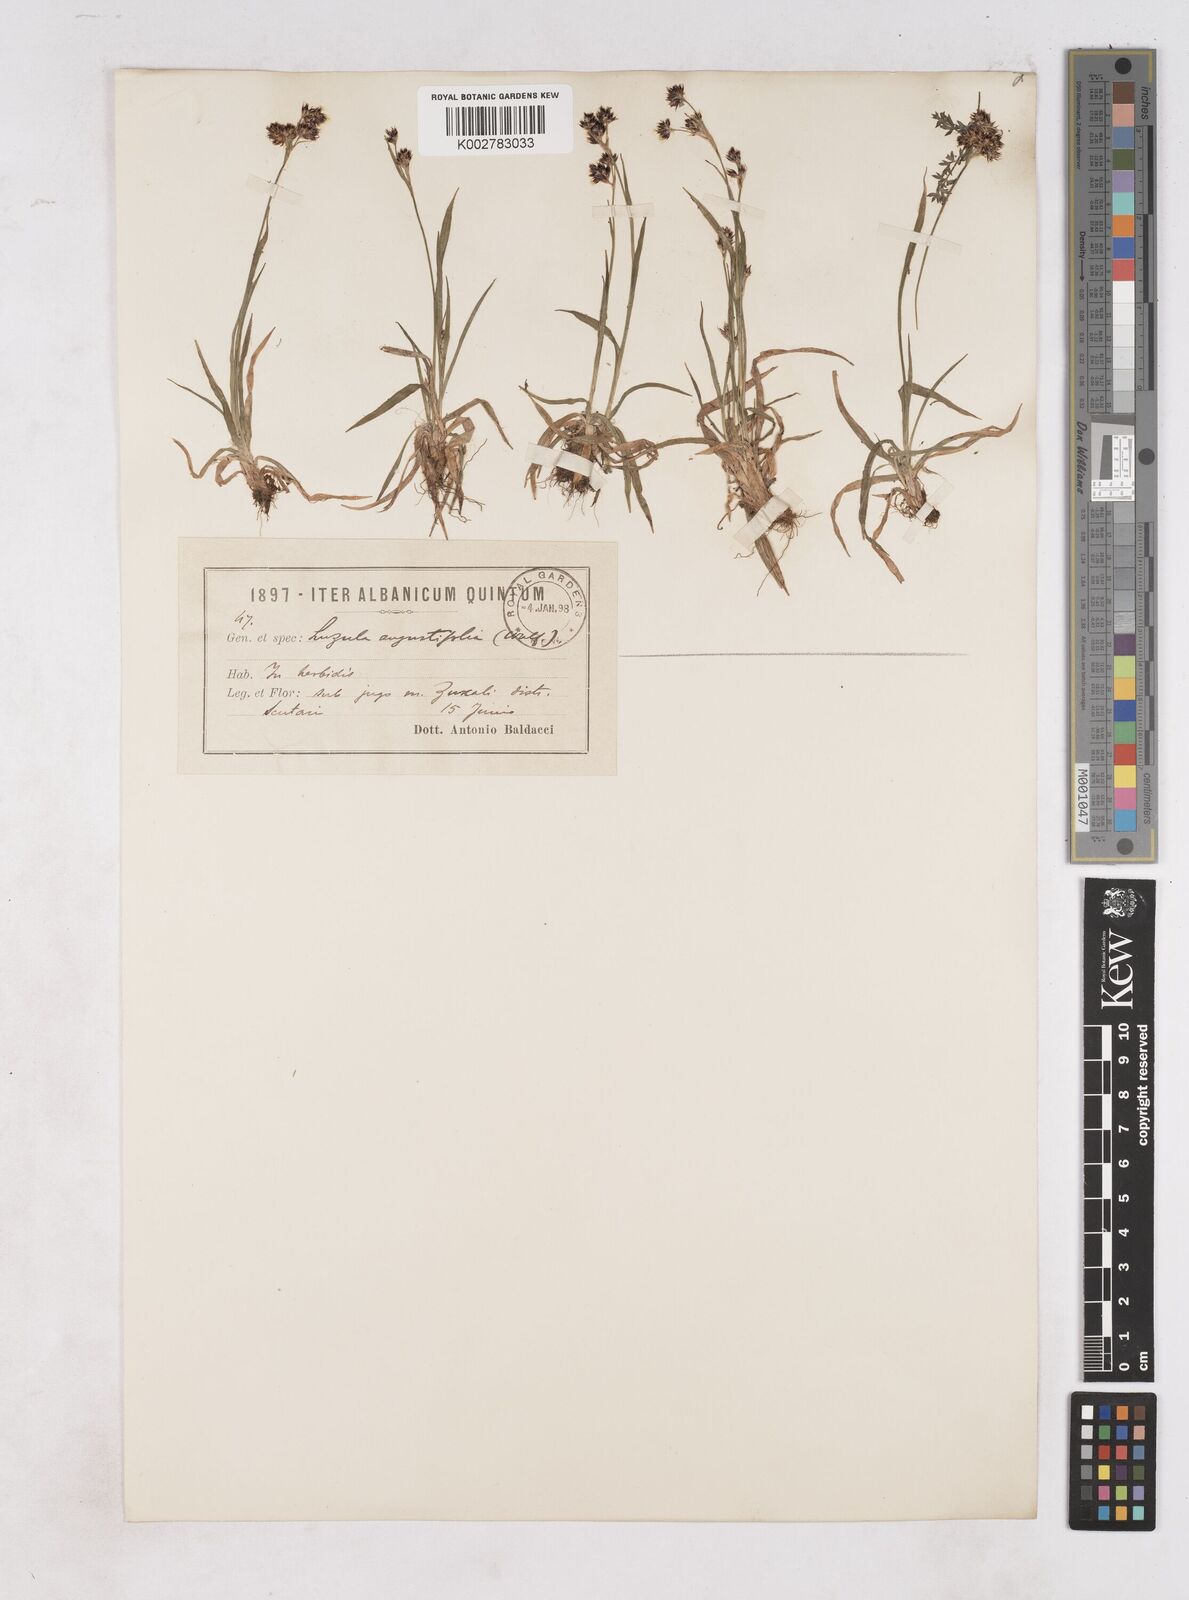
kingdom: Plantae
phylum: Tracheophyta
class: Liliopsida
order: Poales
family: Juncaceae
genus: Luzula
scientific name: Luzula campestris
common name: Field wood-rush
